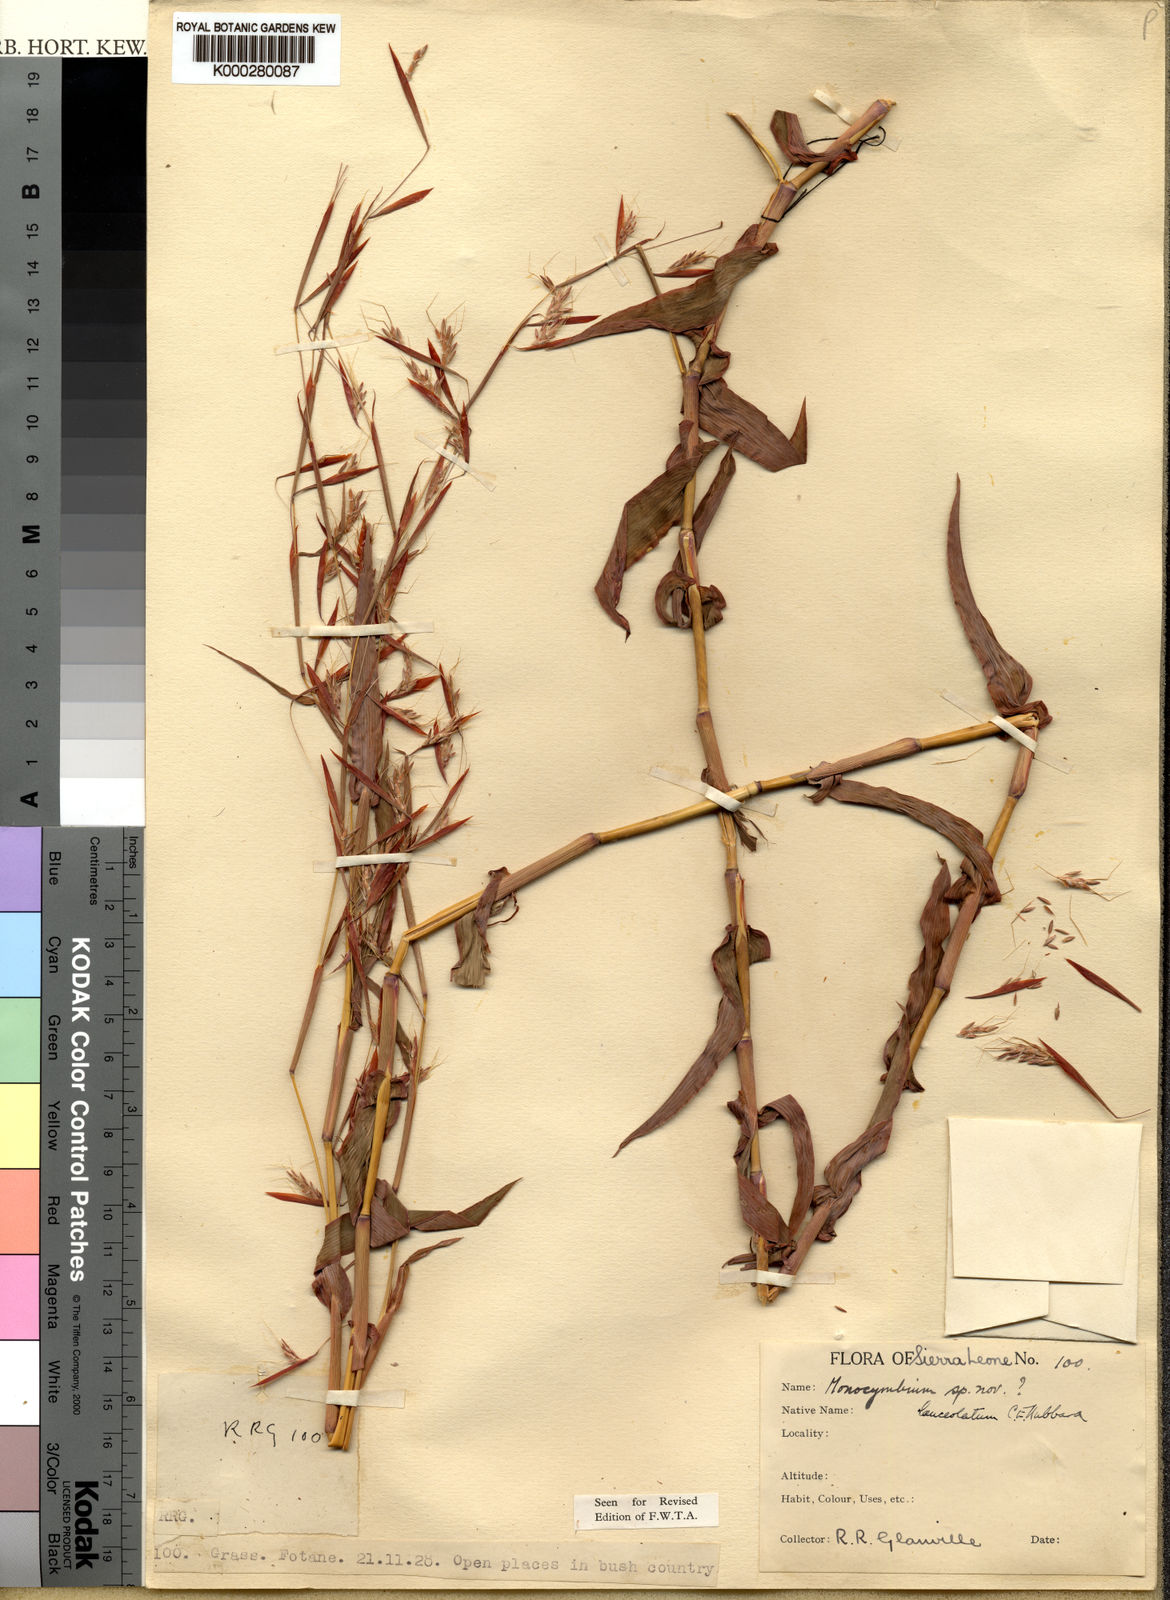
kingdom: Plantae
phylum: Tracheophyta
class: Liliopsida
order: Poales
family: Poaceae
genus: Monocymbium
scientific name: Monocymbium lanceolatum
